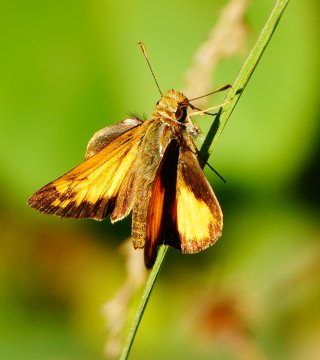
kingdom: Animalia
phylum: Arthropoda
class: Insecta
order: Lepidoptera
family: Hesperiidae
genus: Lon
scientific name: Lon zabulon
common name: Zabulon Skipper
